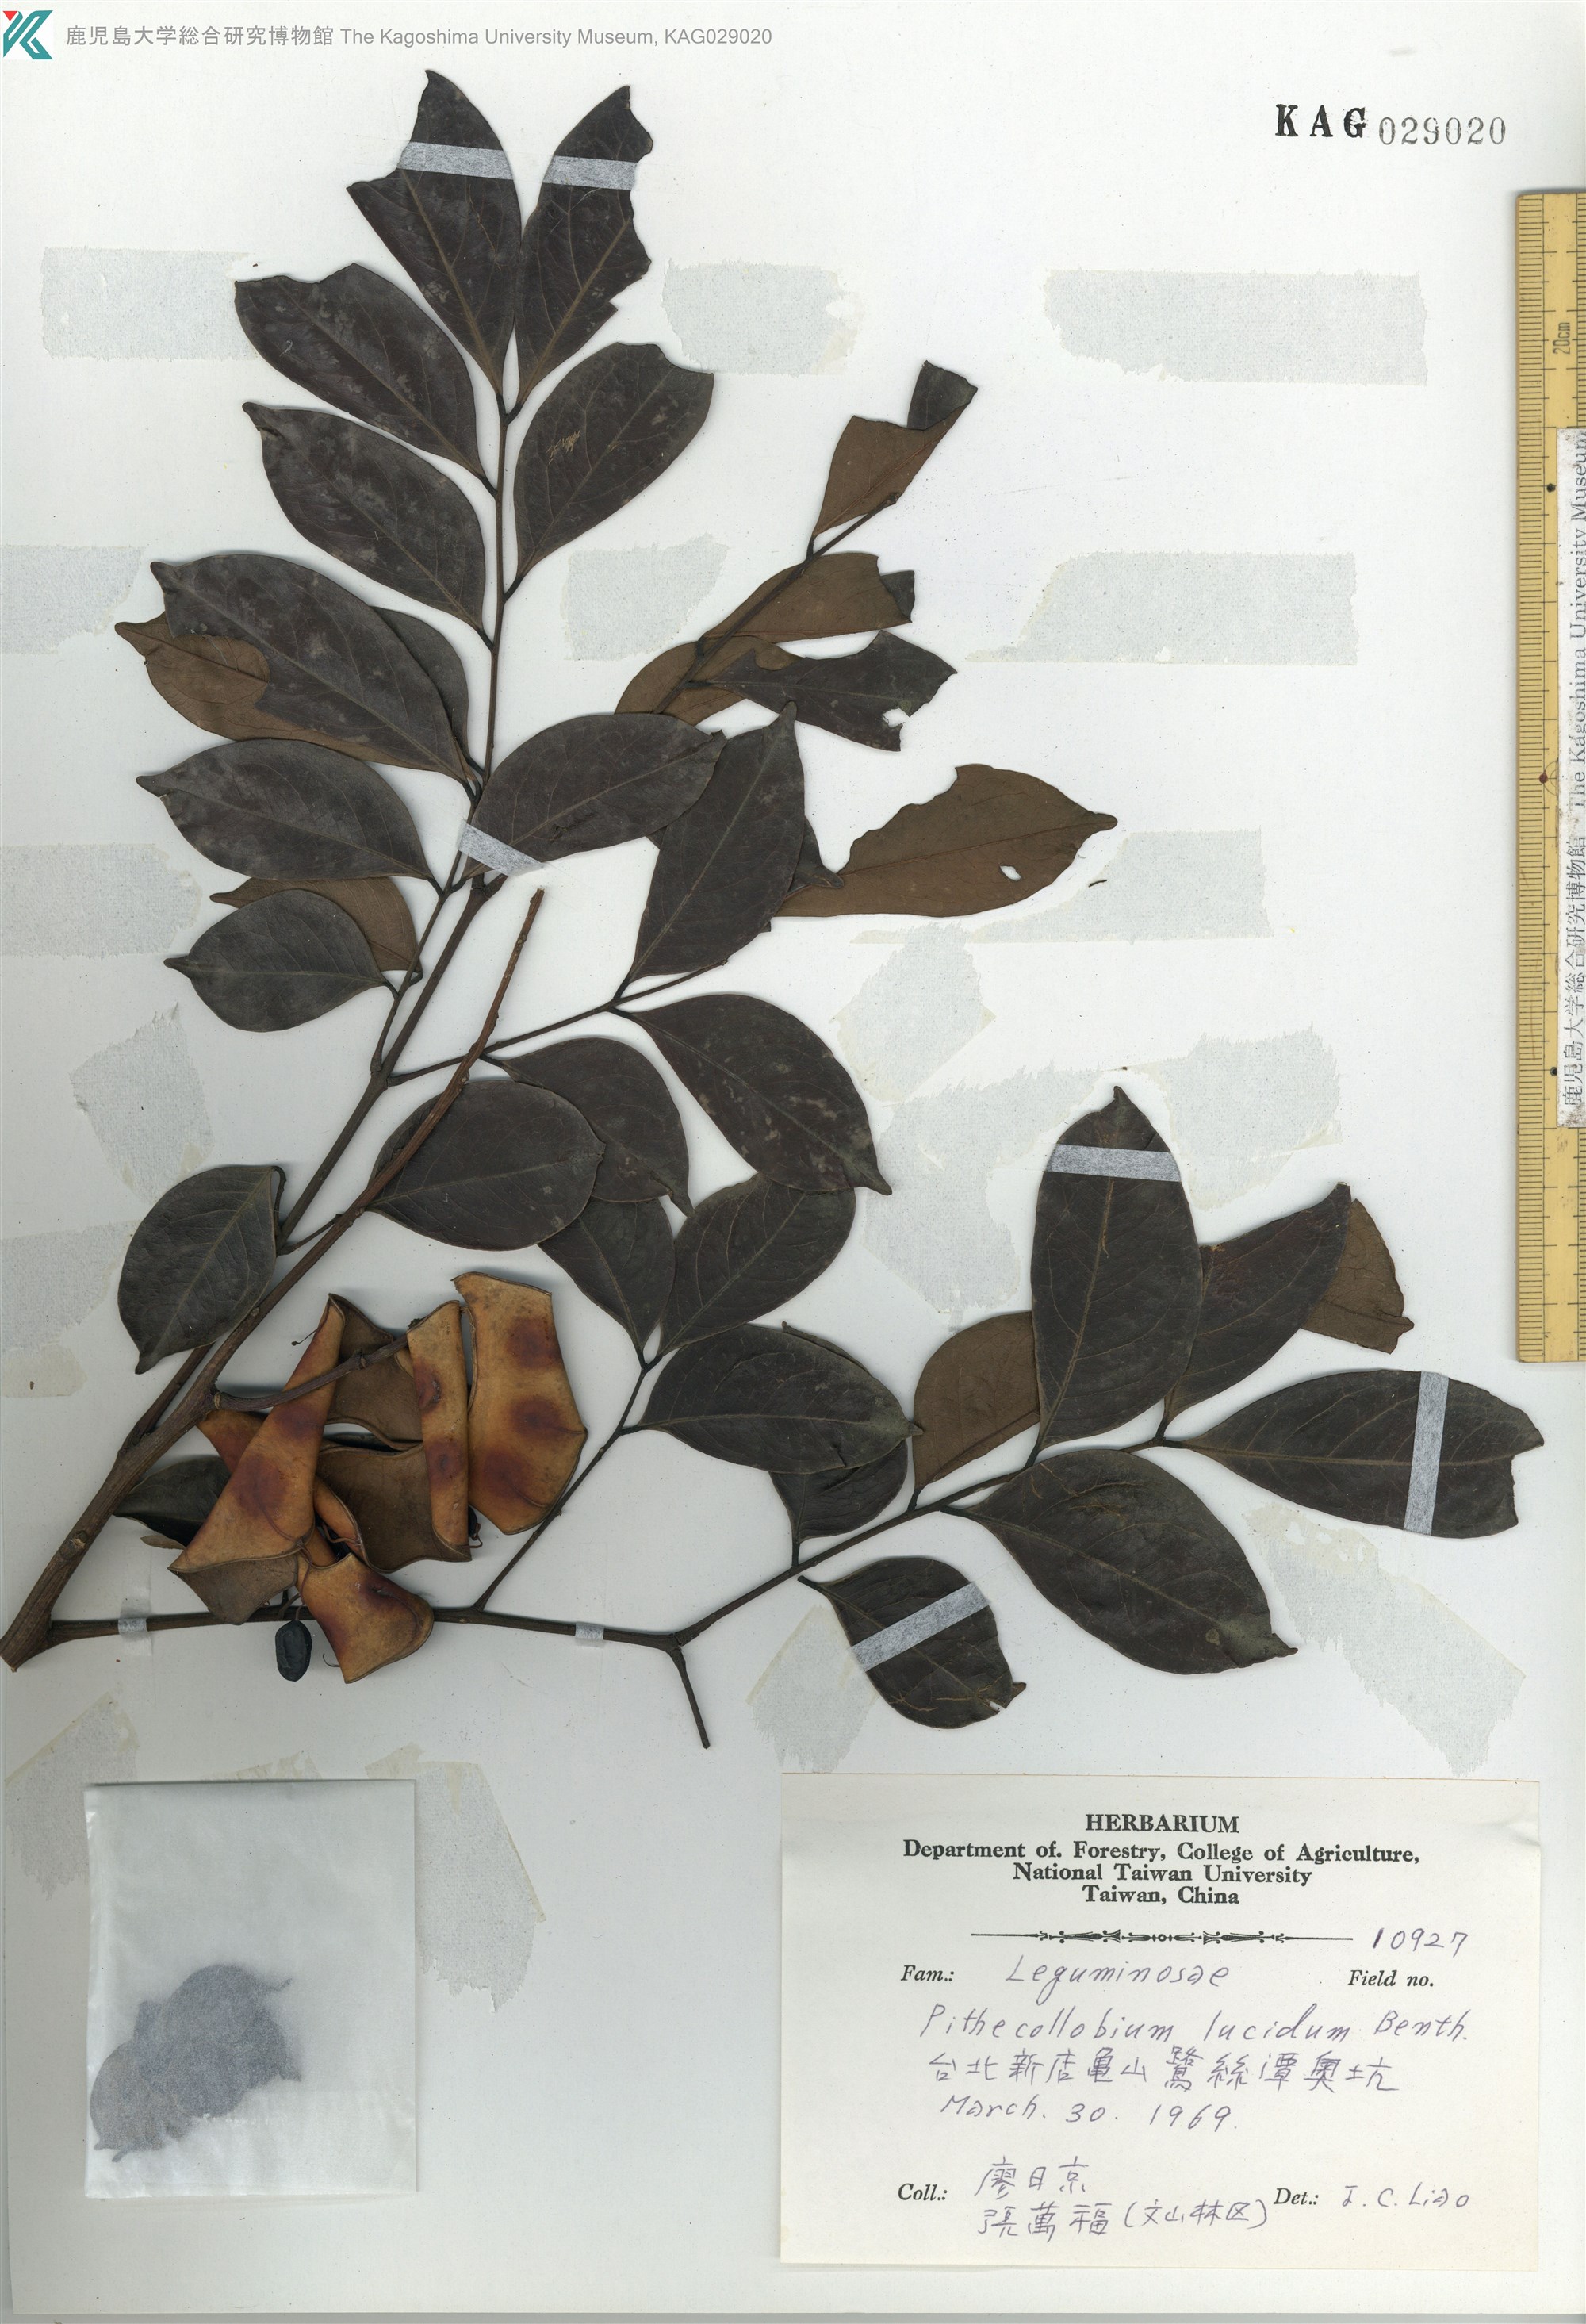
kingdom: Plantae
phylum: Tracheophyta
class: Magnoliopsida
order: Fabales
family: Fabaceae
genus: Archidendron
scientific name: Archidendron lucidum
